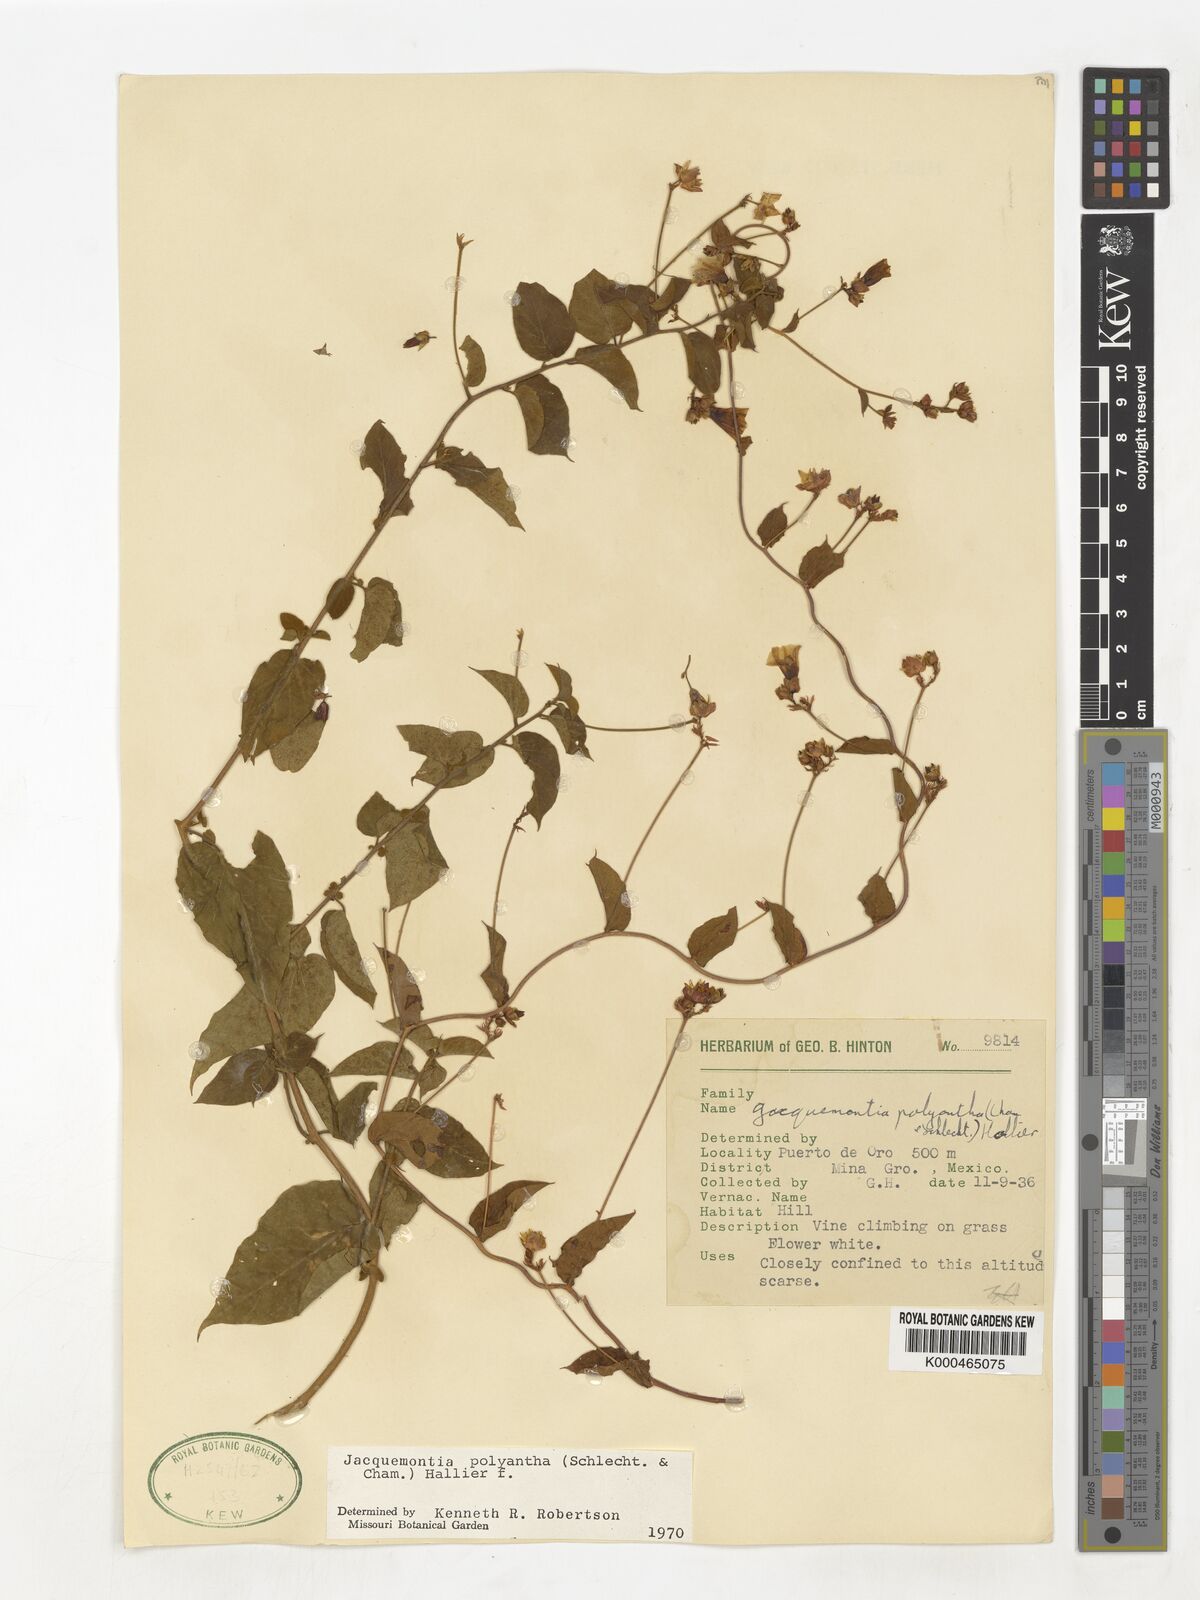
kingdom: Plantae
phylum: Tracheophyta
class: Magnoliopsida
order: Solanales
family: Convolvulaceae
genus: Jacquemontia
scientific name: Jacquemontia polyantha
